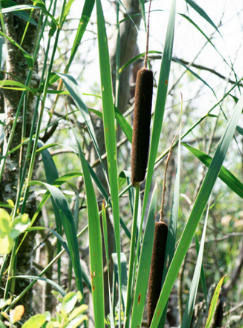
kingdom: Plantae
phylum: Tracheophyta
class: Liliopsida
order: Poales
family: Typhaceae
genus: Typha
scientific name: Typha latifolia
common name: Bredbladet dunhammer
